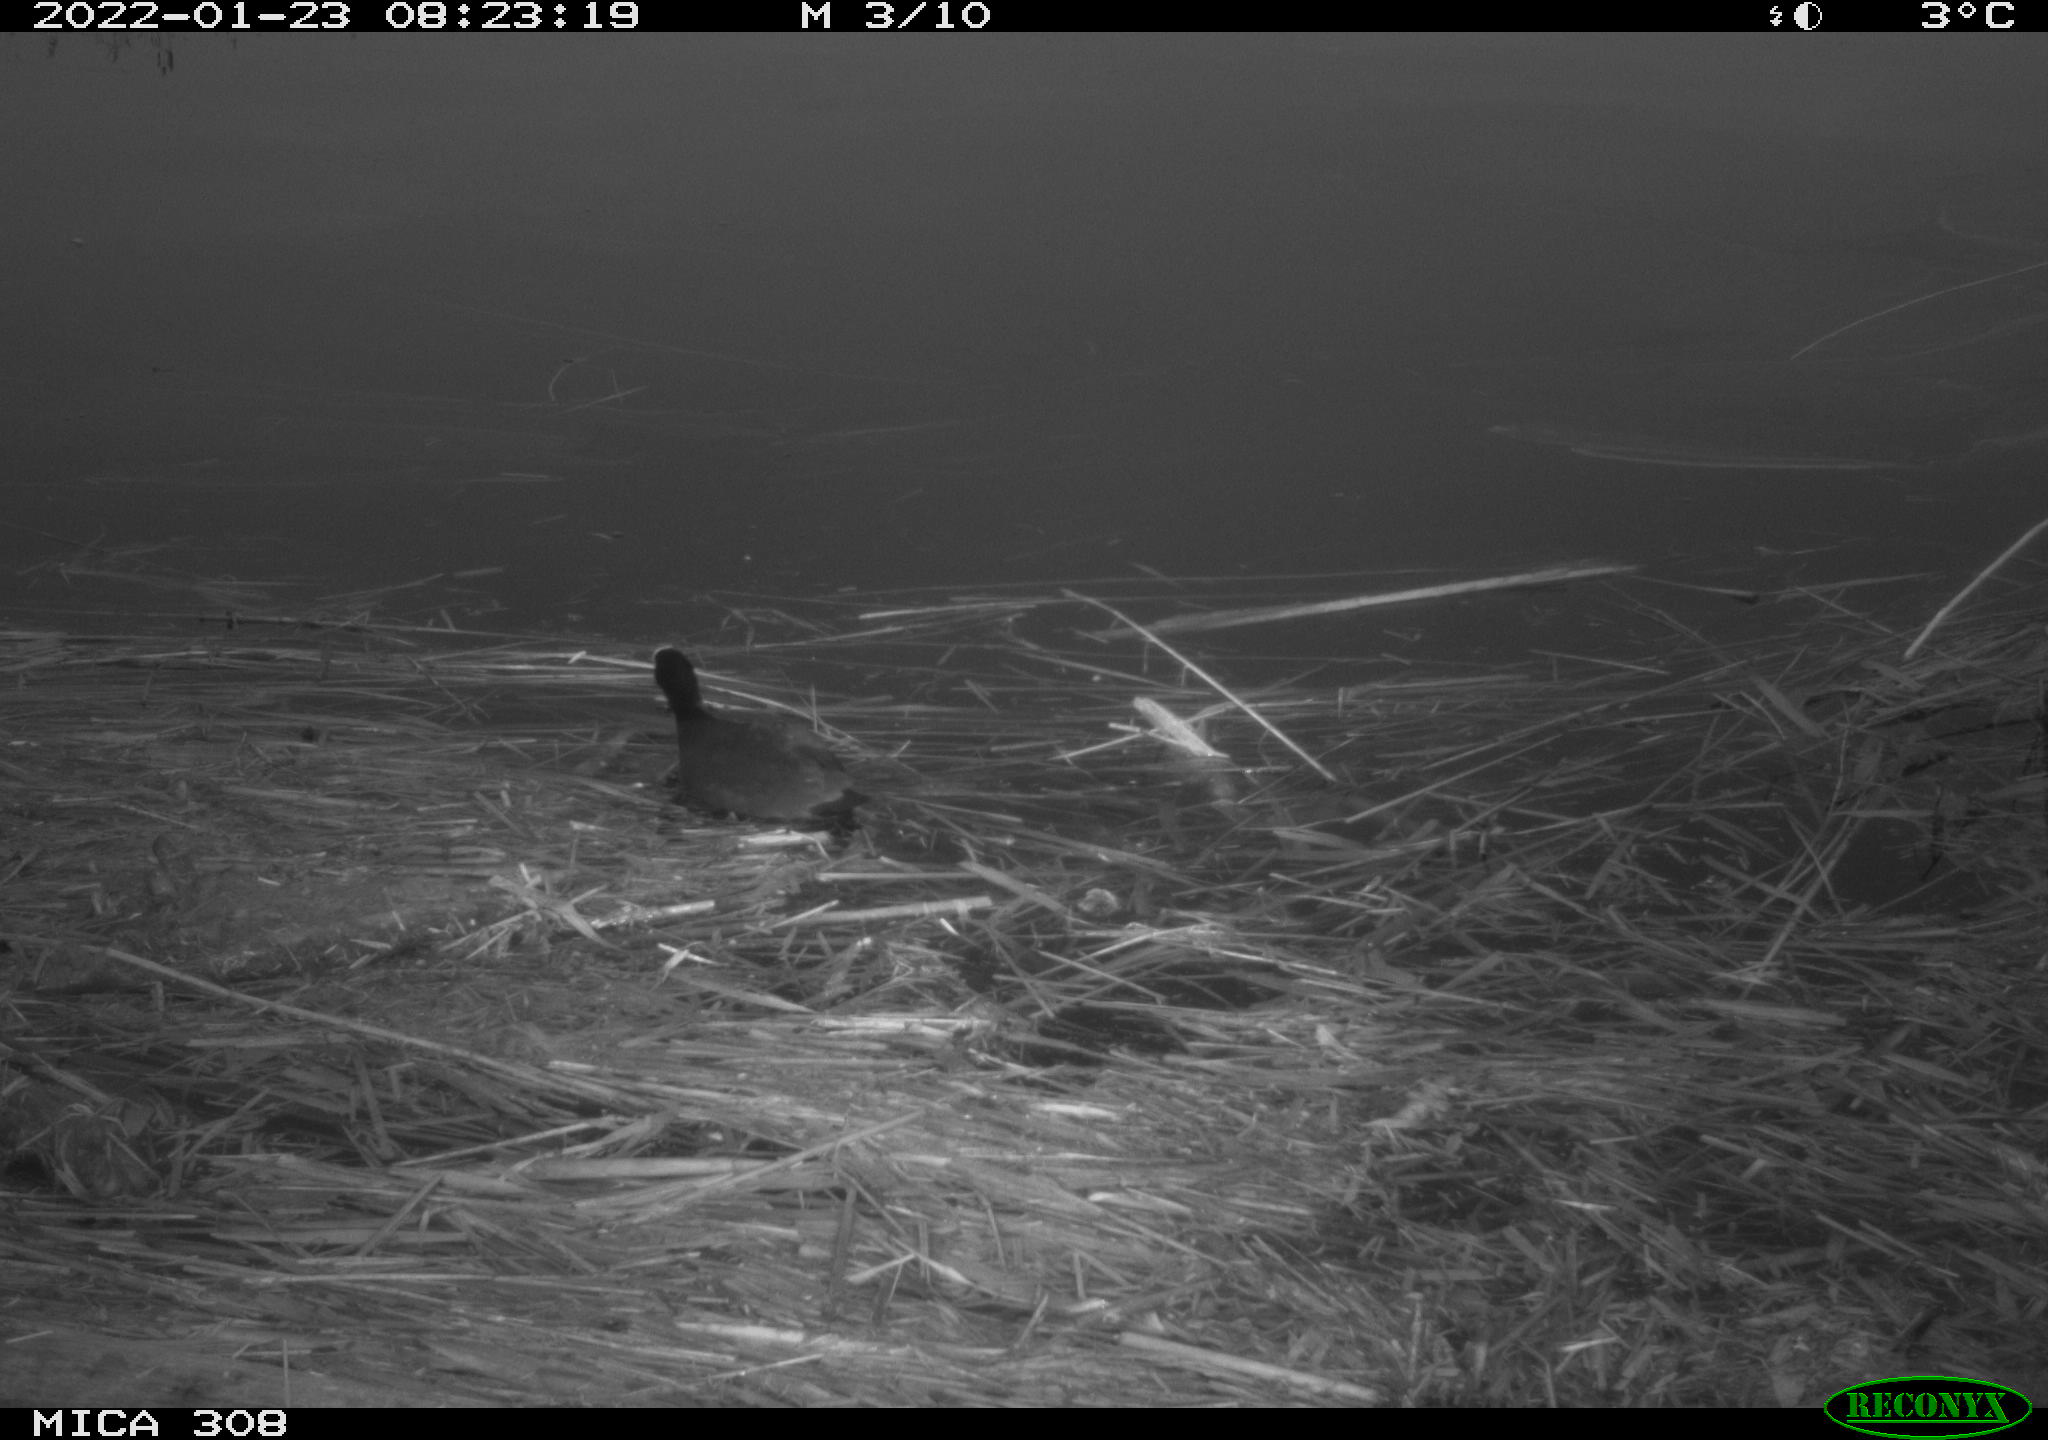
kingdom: Animalia
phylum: Chordata
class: Aves
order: Gruiformes
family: Rallidae
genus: Fulica
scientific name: Fulica atra
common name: Eurasian coot
